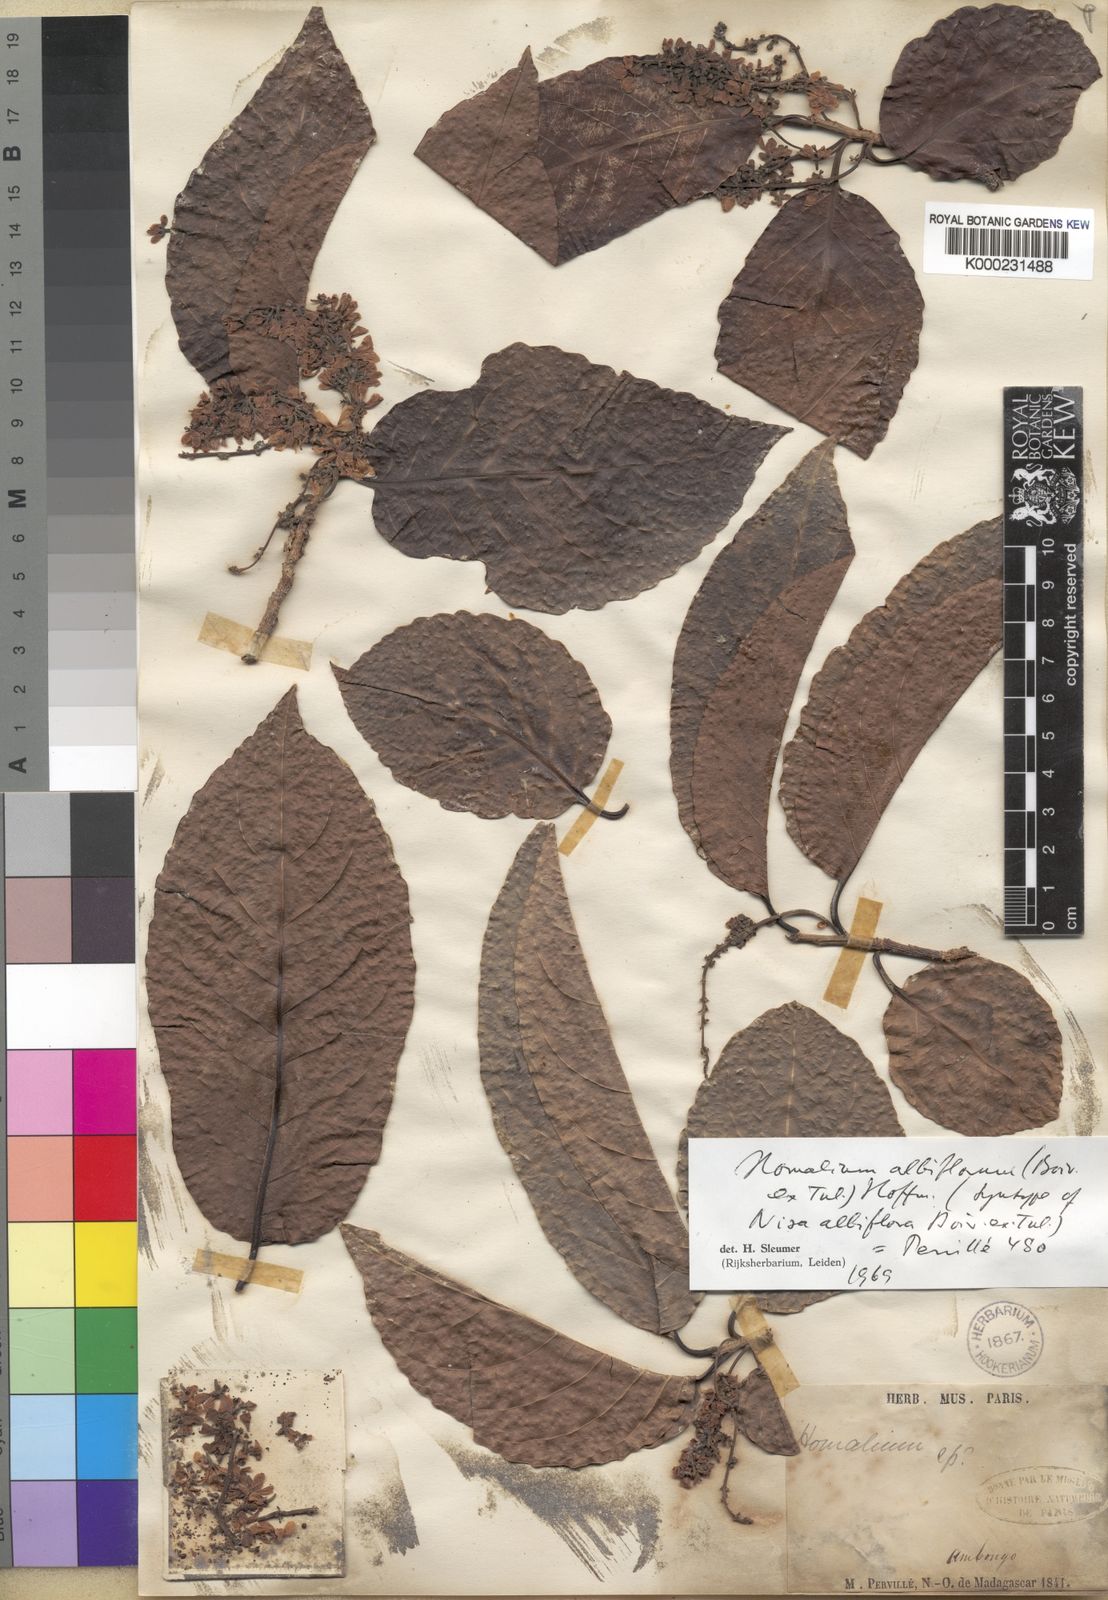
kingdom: Plantae
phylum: Tracheophyta
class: Magnoliopsida
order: Malpighiales
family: Salicaceae
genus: Homalium
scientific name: Homalium albiflorum
